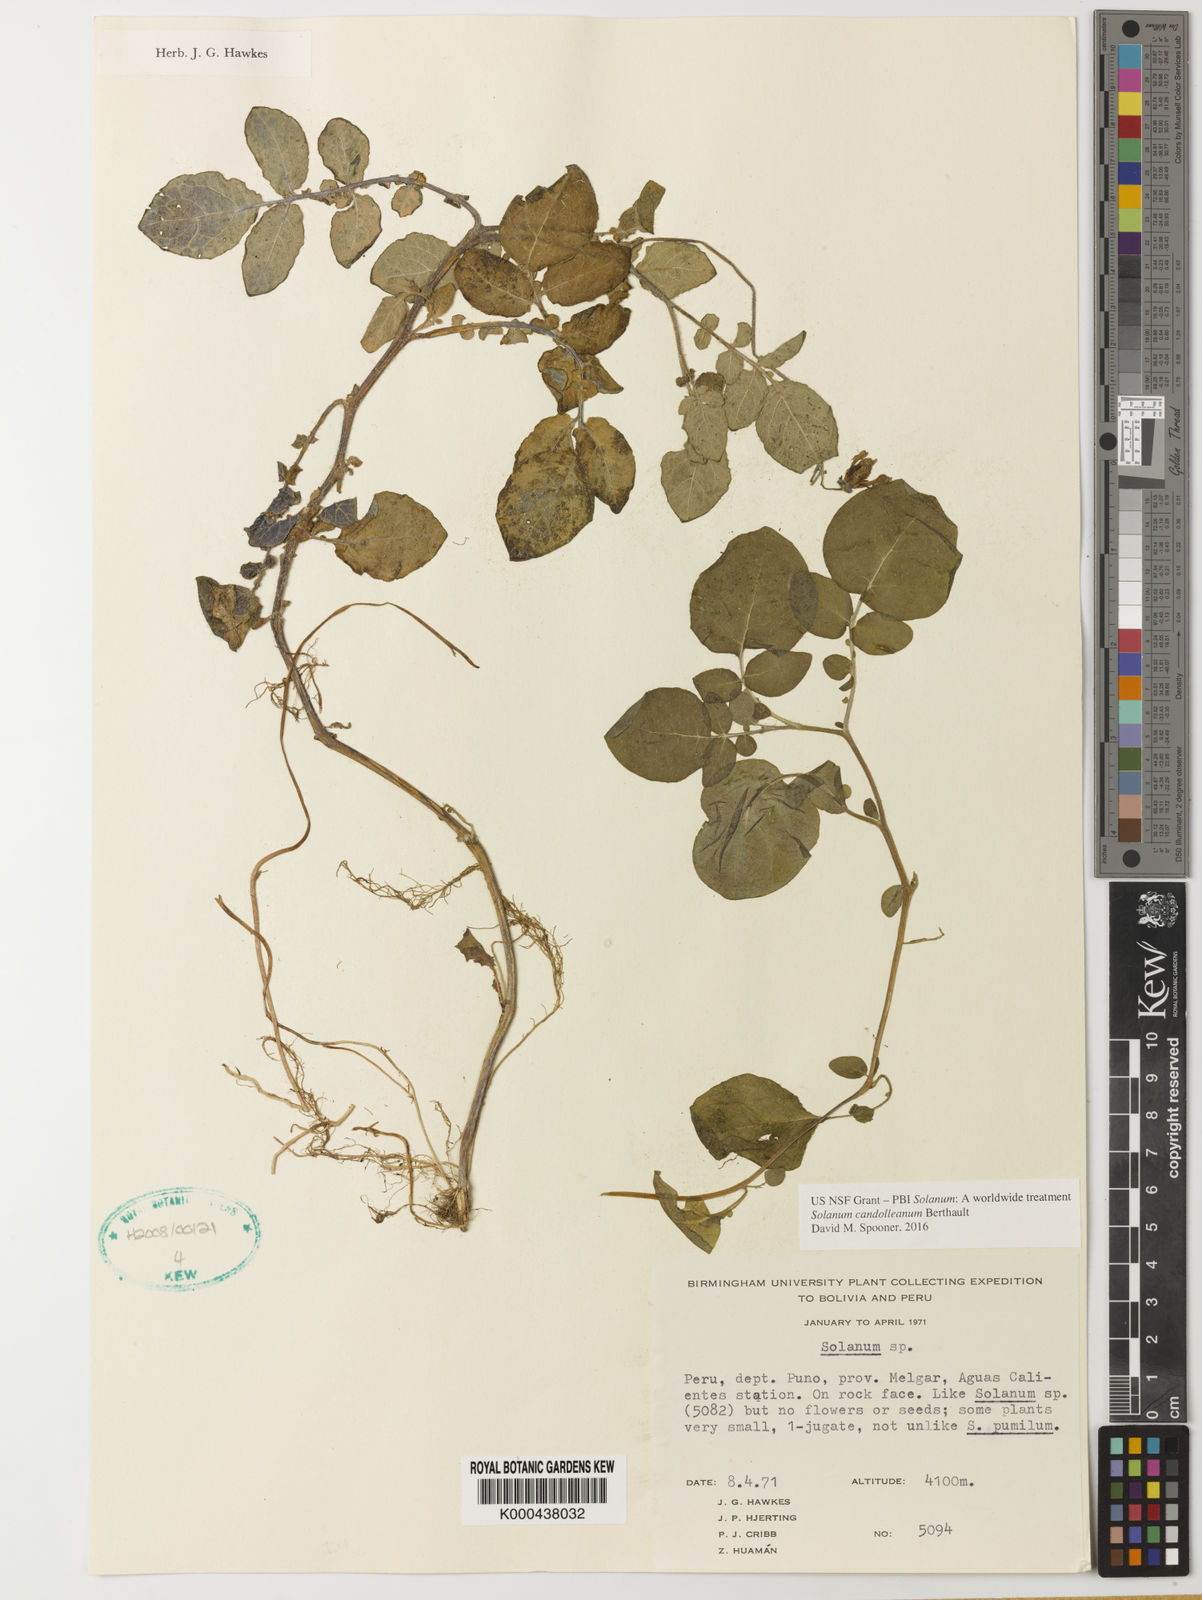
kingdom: Plantae
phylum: Tracheophyta
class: Magnoliopsida
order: Solanales
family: Solanaceae
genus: Solanum
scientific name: Solanum candolleanum
